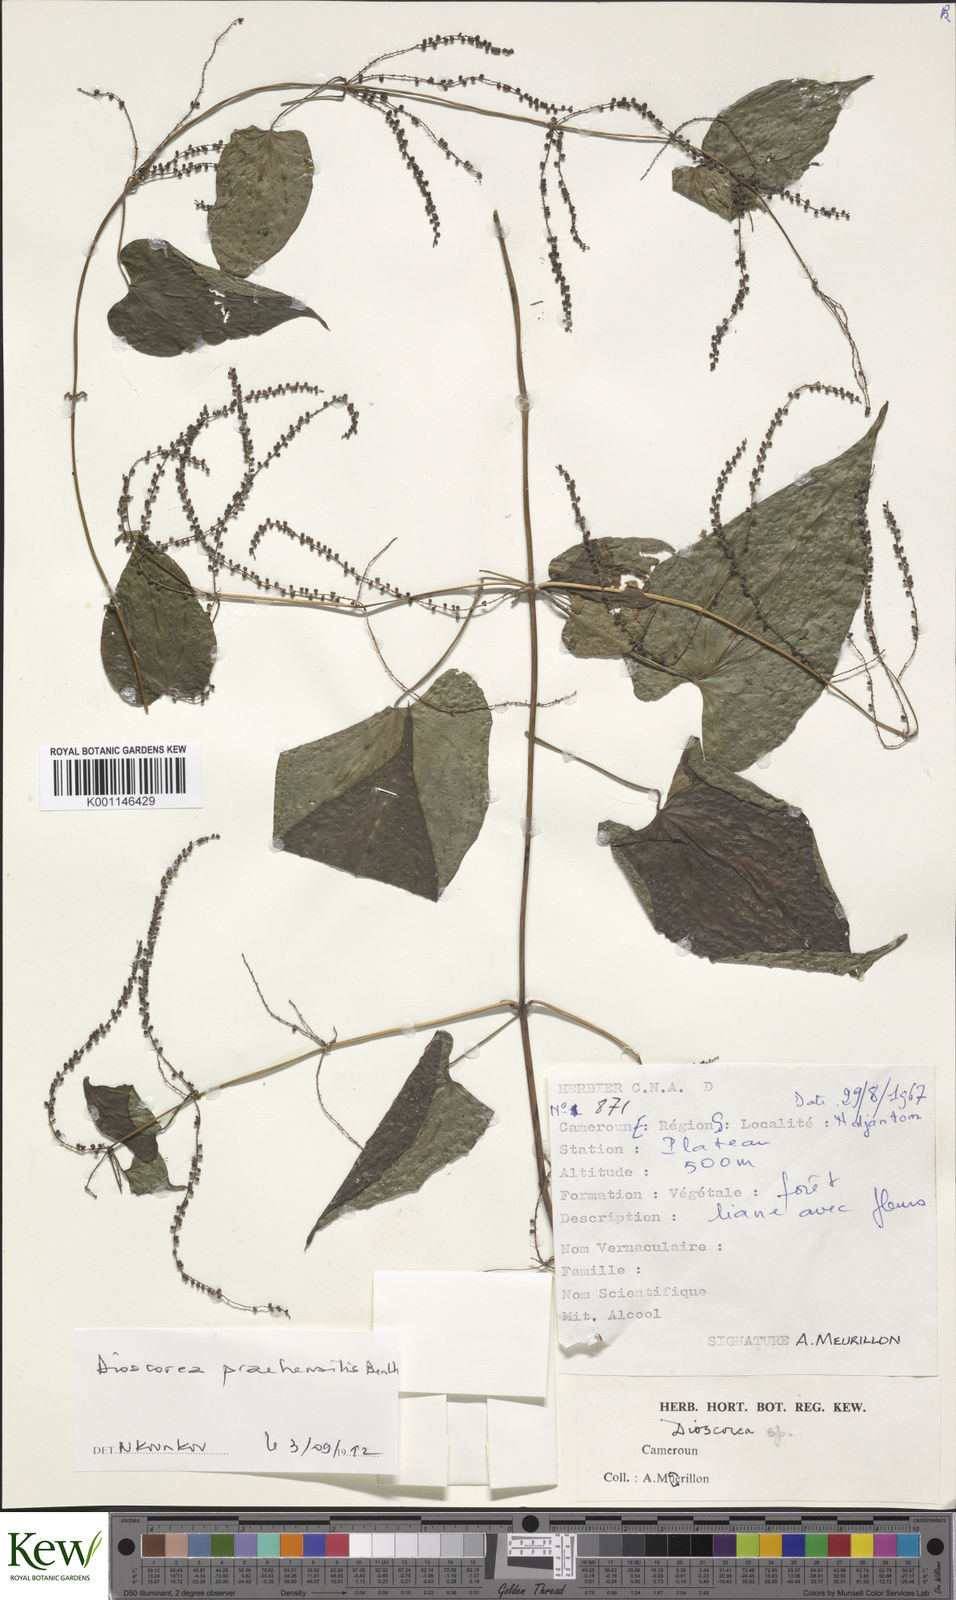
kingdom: Plantae
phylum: Tracheophyta
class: Liliopsida
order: Dioscoreales
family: Dioscoreaceae
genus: Dioscorea
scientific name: Dioscorea praehensilis
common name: Bush yam
